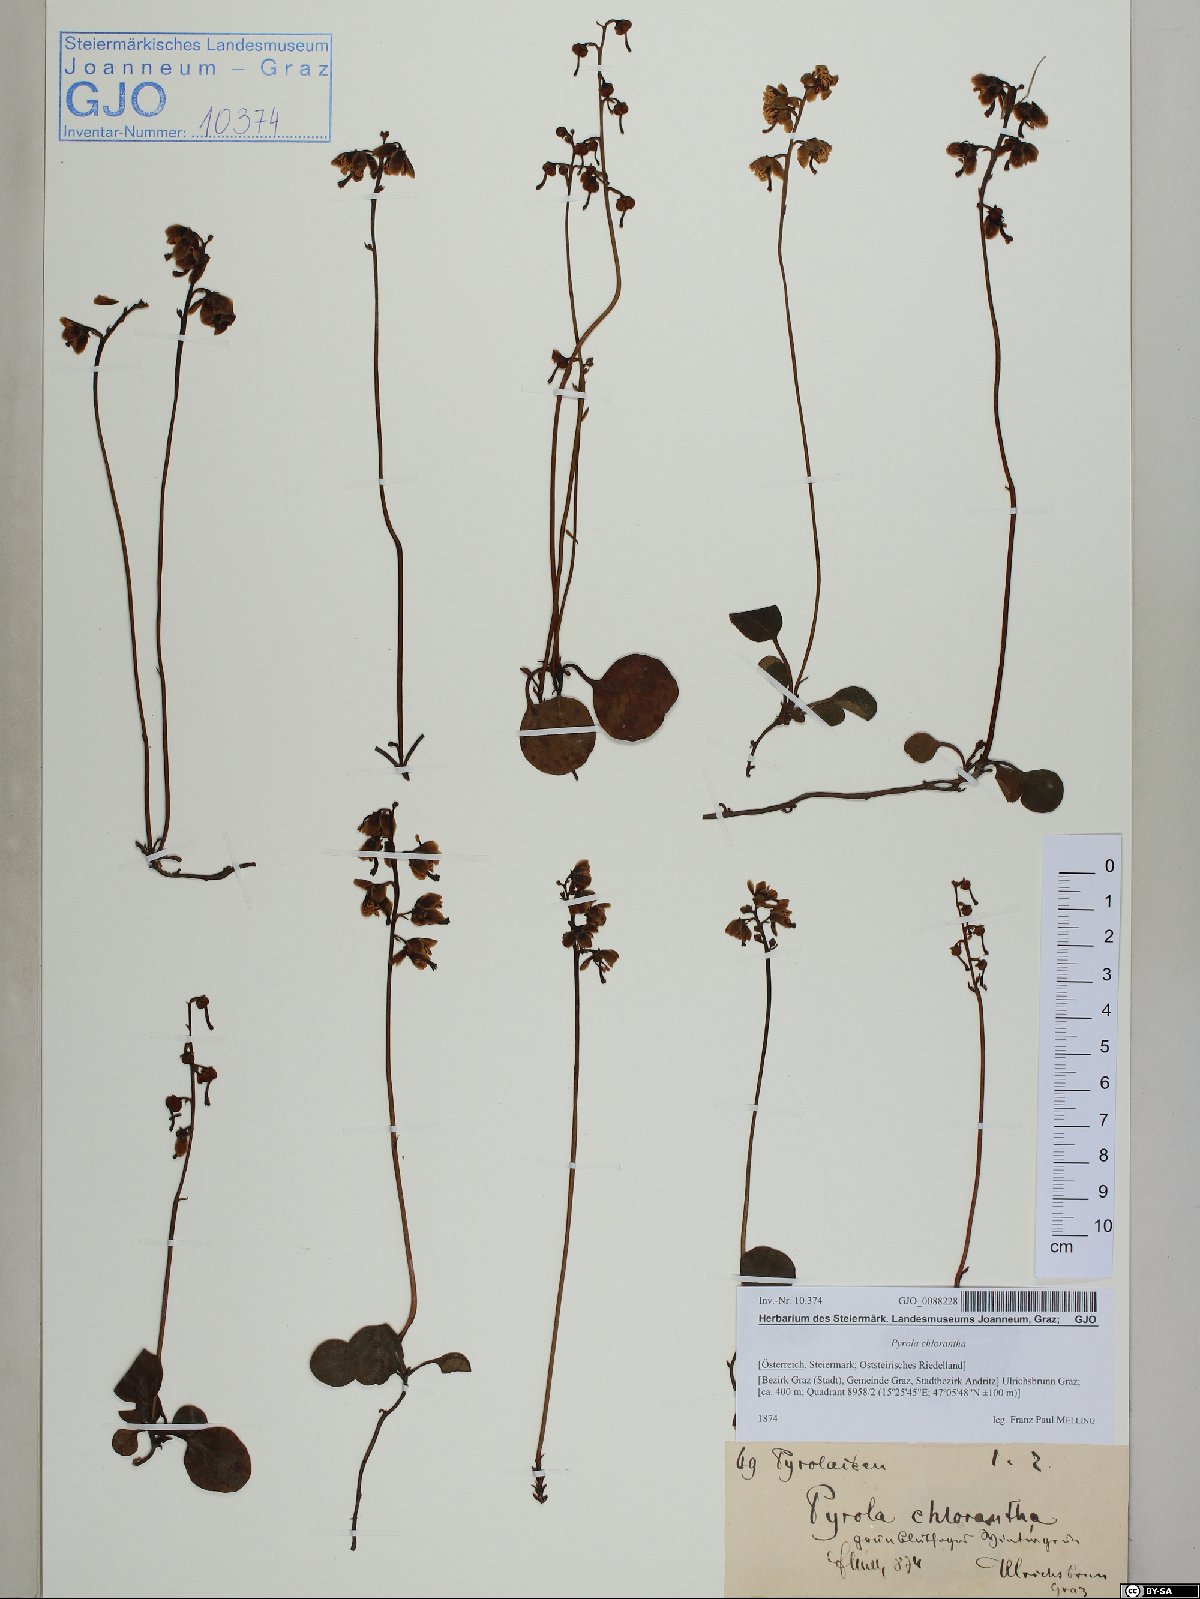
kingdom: Plantae
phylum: Tracheophyta
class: Magnoliopsida
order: Ericales
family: Ericaceae
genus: Pyrola
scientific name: Pyrola chlorantha
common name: Green wintergreen
